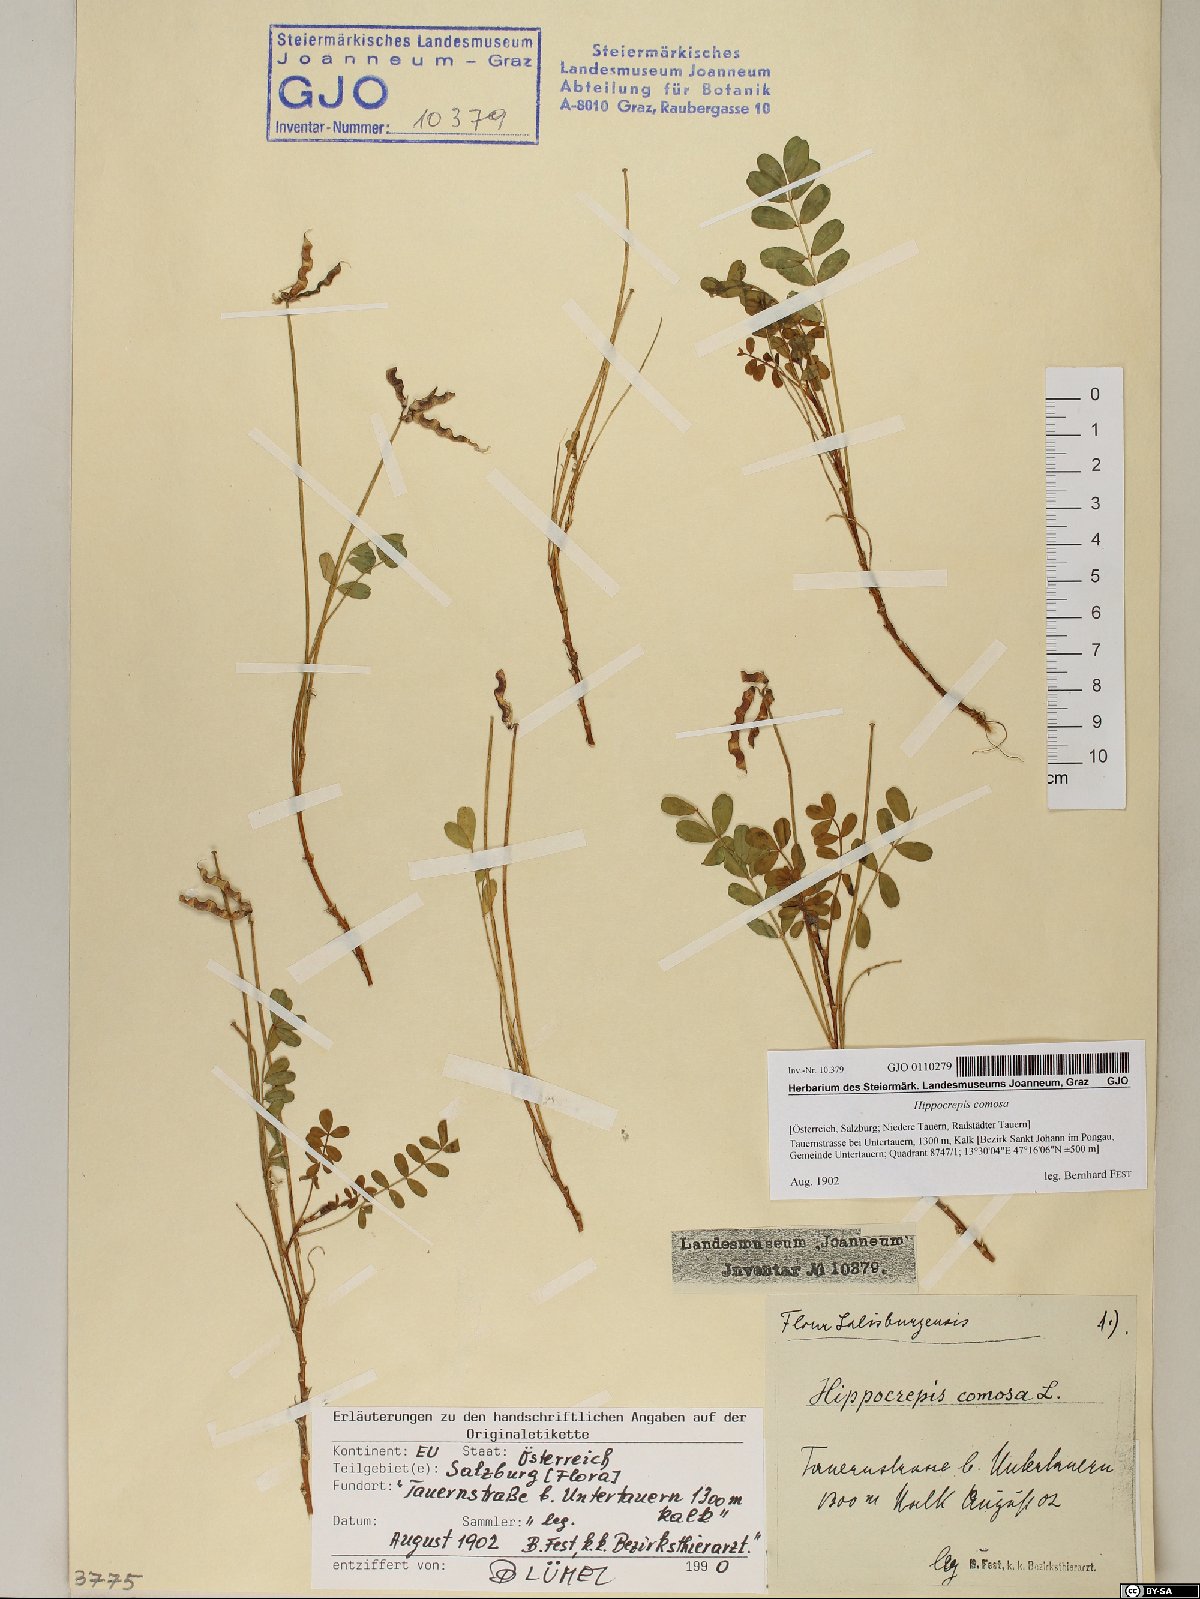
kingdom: Plantae
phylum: Tracheophyta
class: Magnoliopsida
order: Fabales
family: Fabaceae
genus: Hippocrepis
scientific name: Hippocrepis comosa
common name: Horseshoe vetch
